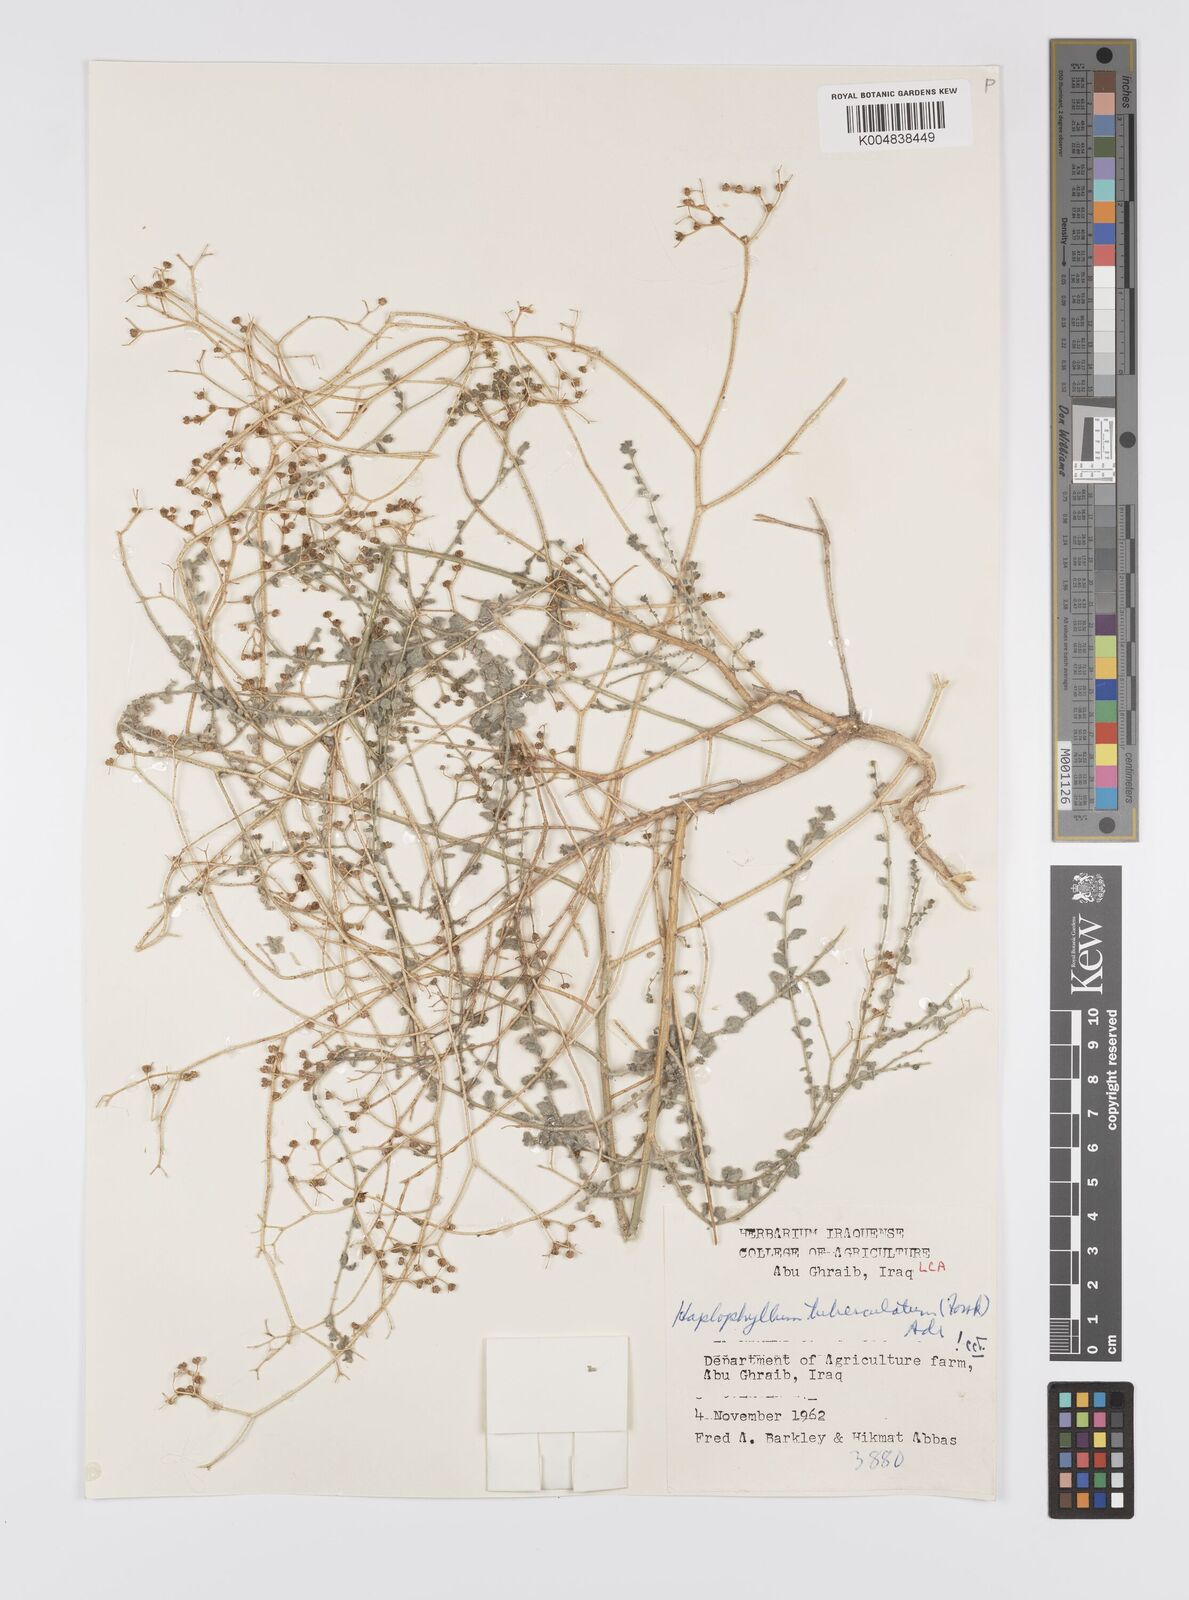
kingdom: Plantae
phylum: Tracheophyta
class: Magnoliopsida
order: Sapindales
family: Rutaceae
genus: Haplophyllum
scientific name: Haplophyllum tuberculatum
